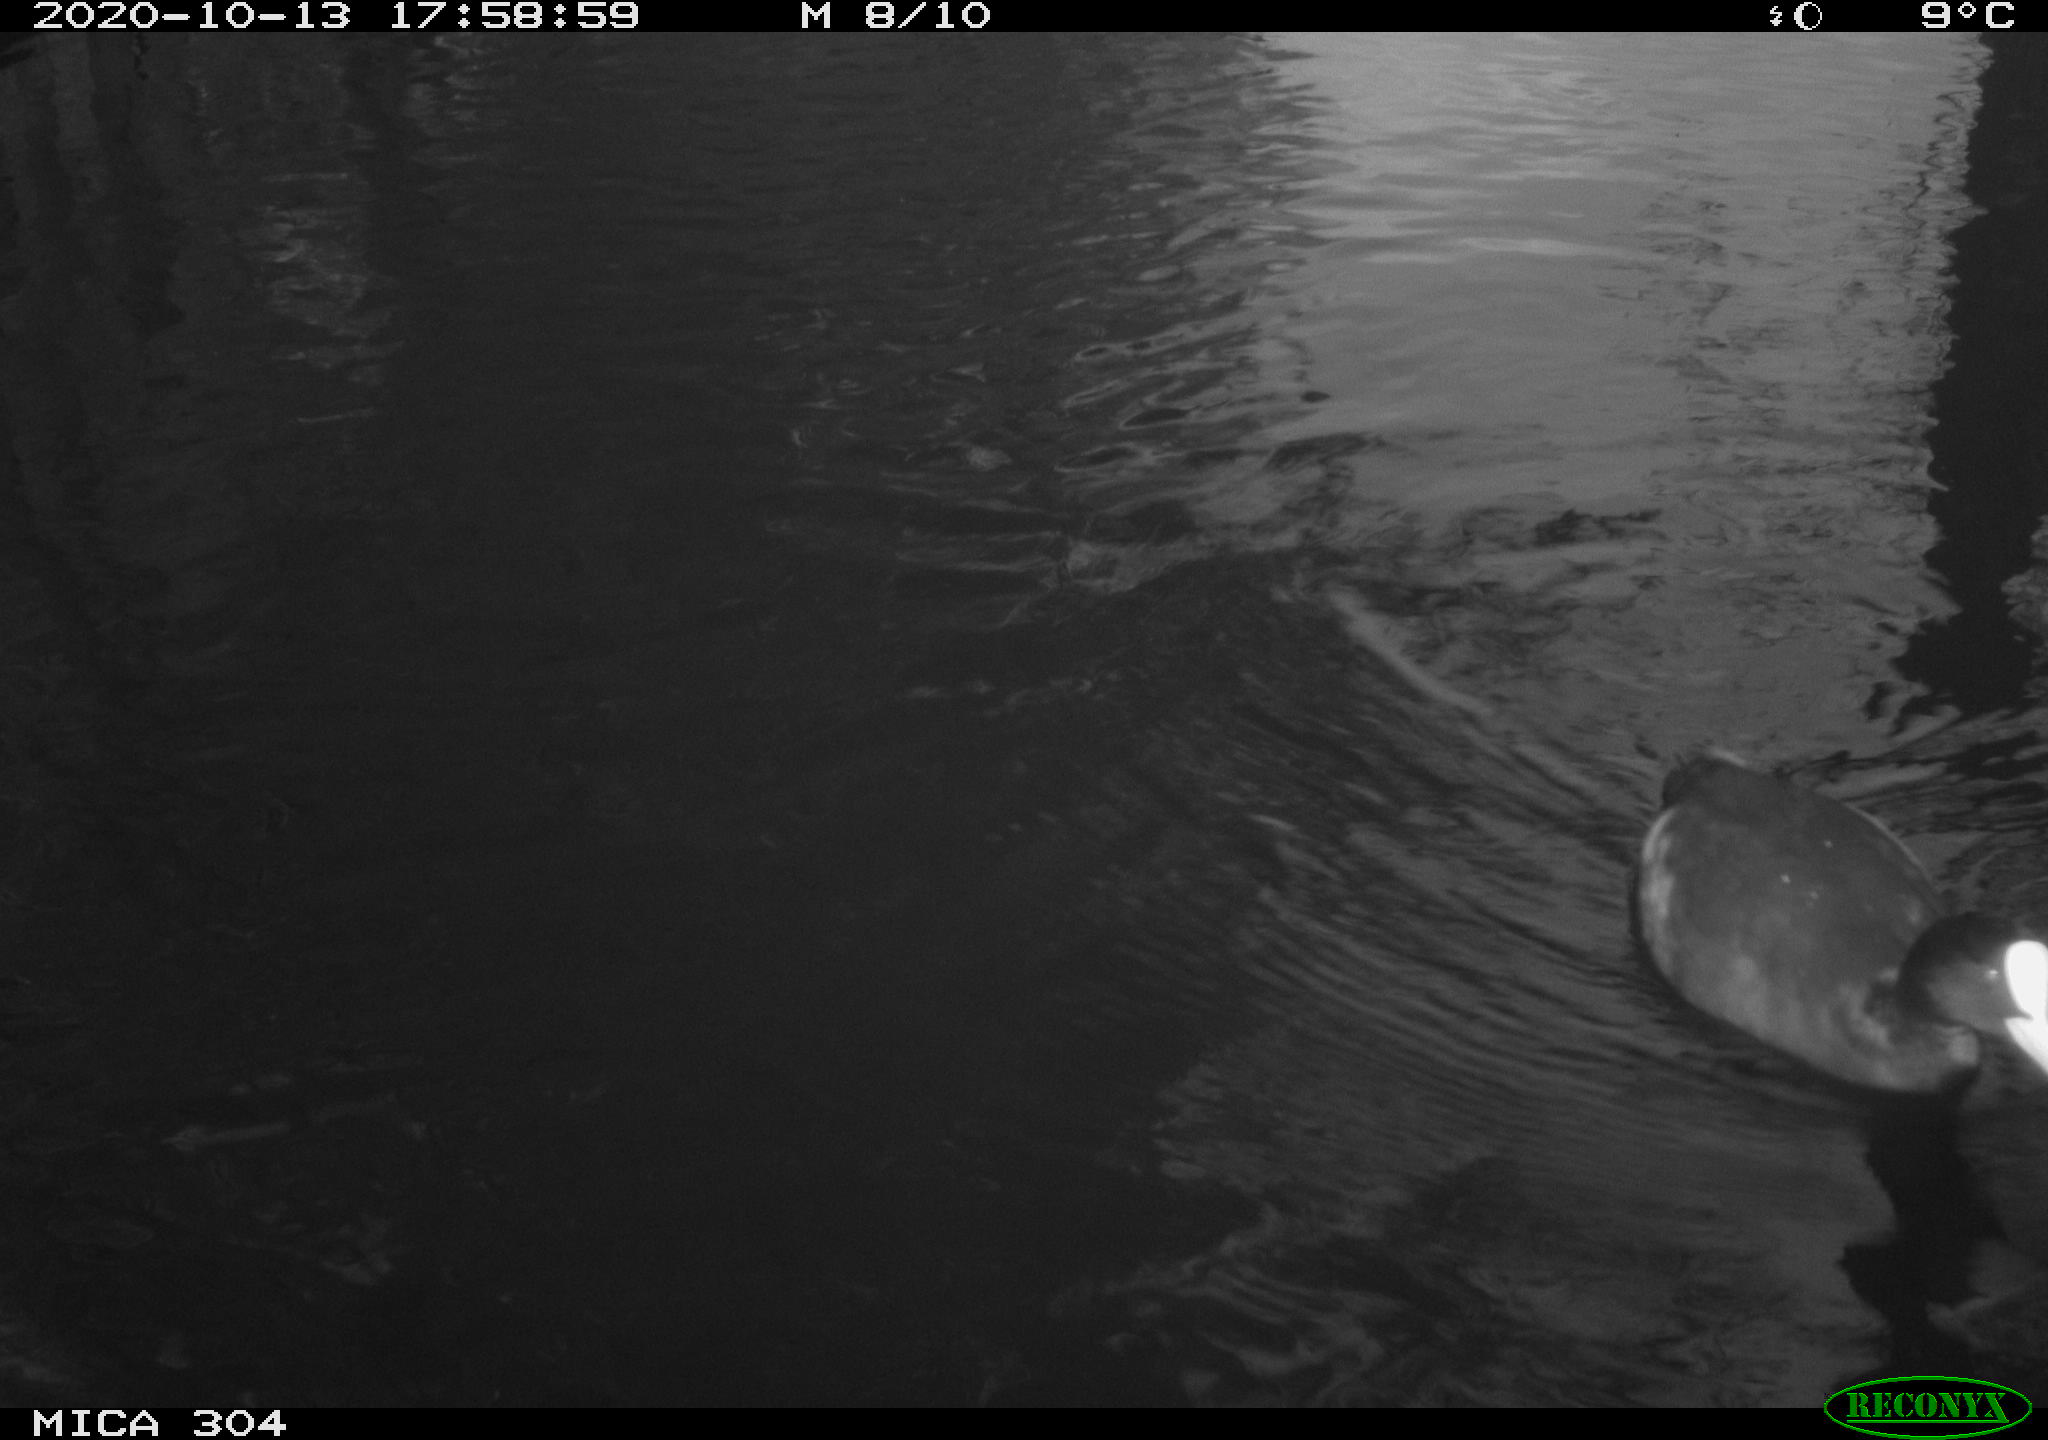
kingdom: Animalia
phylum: Chordata
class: Aves
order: Gruiformes
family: Rallidae
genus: Fulica
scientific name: Fulica atra
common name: Eurasian coot
